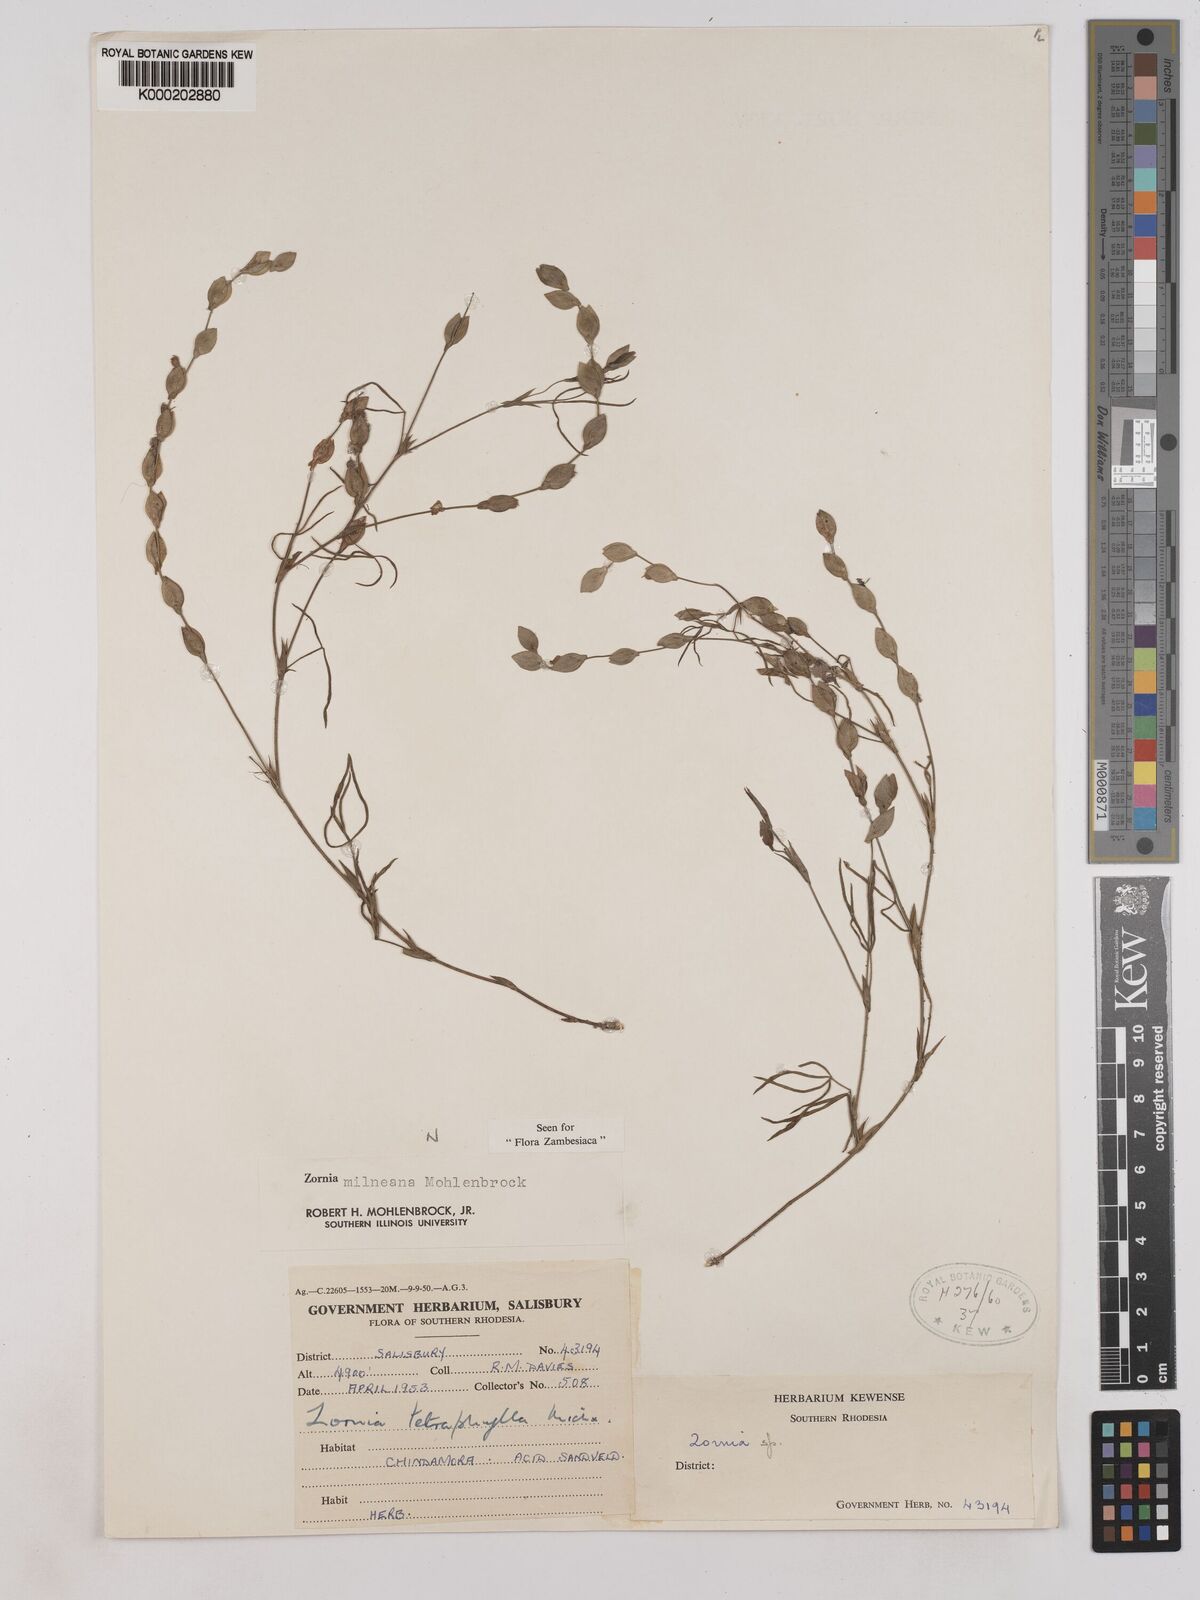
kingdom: Plantae
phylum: Tracheophyta
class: Magnoliopsida
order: Fabales
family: Fabaceae
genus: Zornia
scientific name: Zornia milneana
